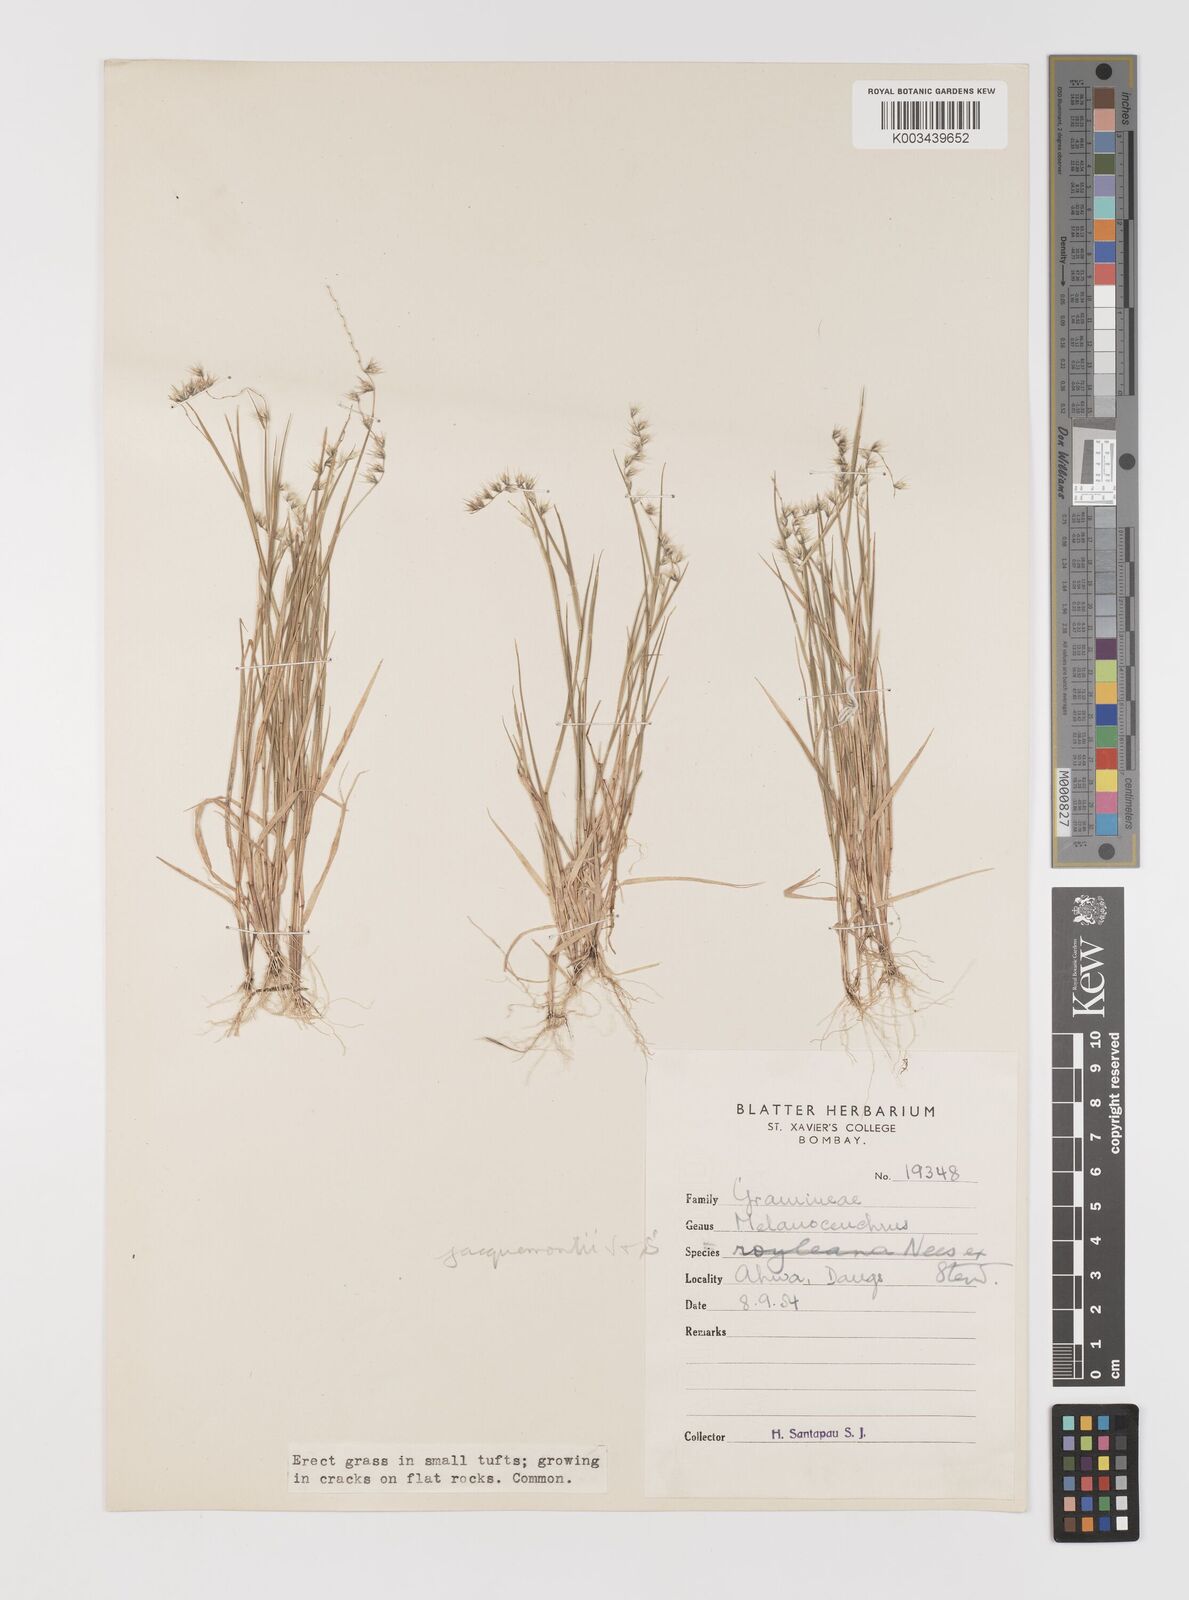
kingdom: Plantae
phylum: Tracheophyta
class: Liliopsida
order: Poales
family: Poaceae
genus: Melanocenchris
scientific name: Melanocenchris jacquemontii
